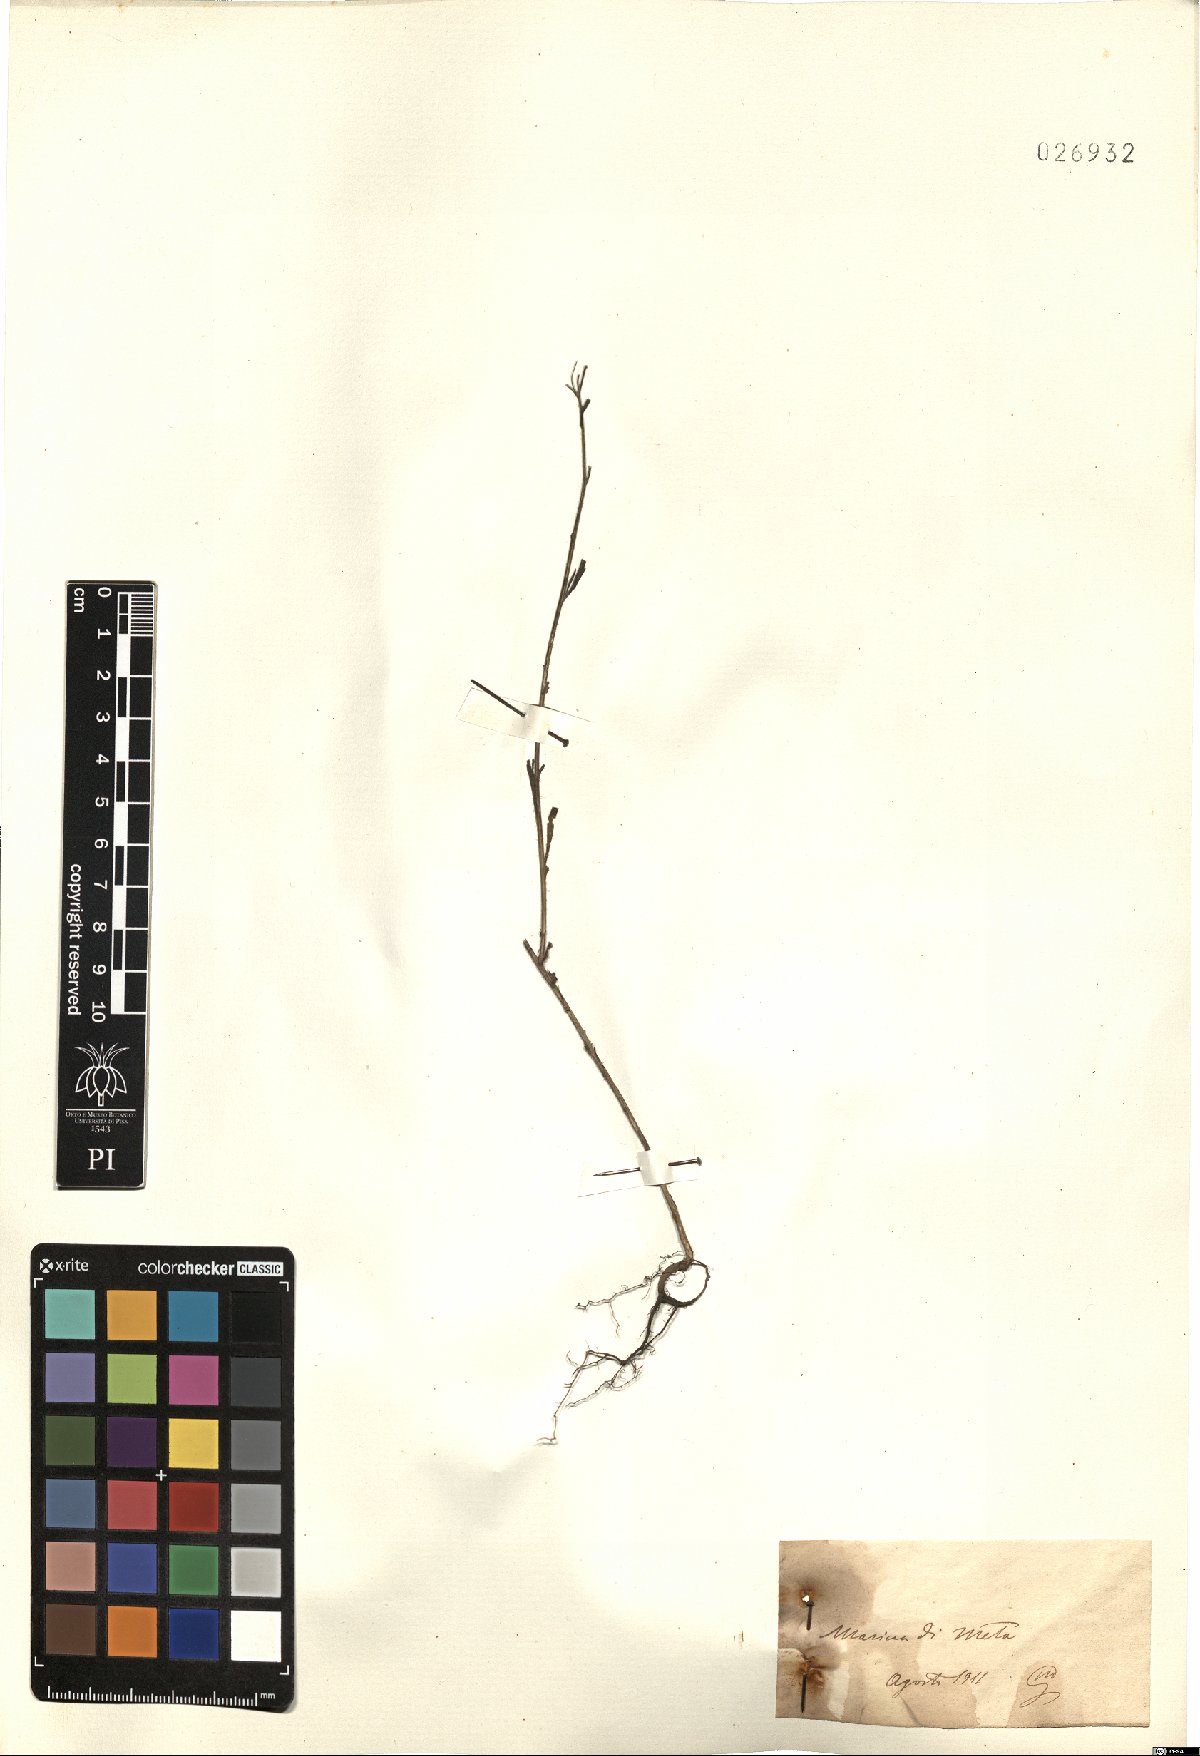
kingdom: Plantae
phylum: Tracheophyta
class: Magnoliopsida
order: Asterales
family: Asteraceae
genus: Erigeron
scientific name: Erigeron
